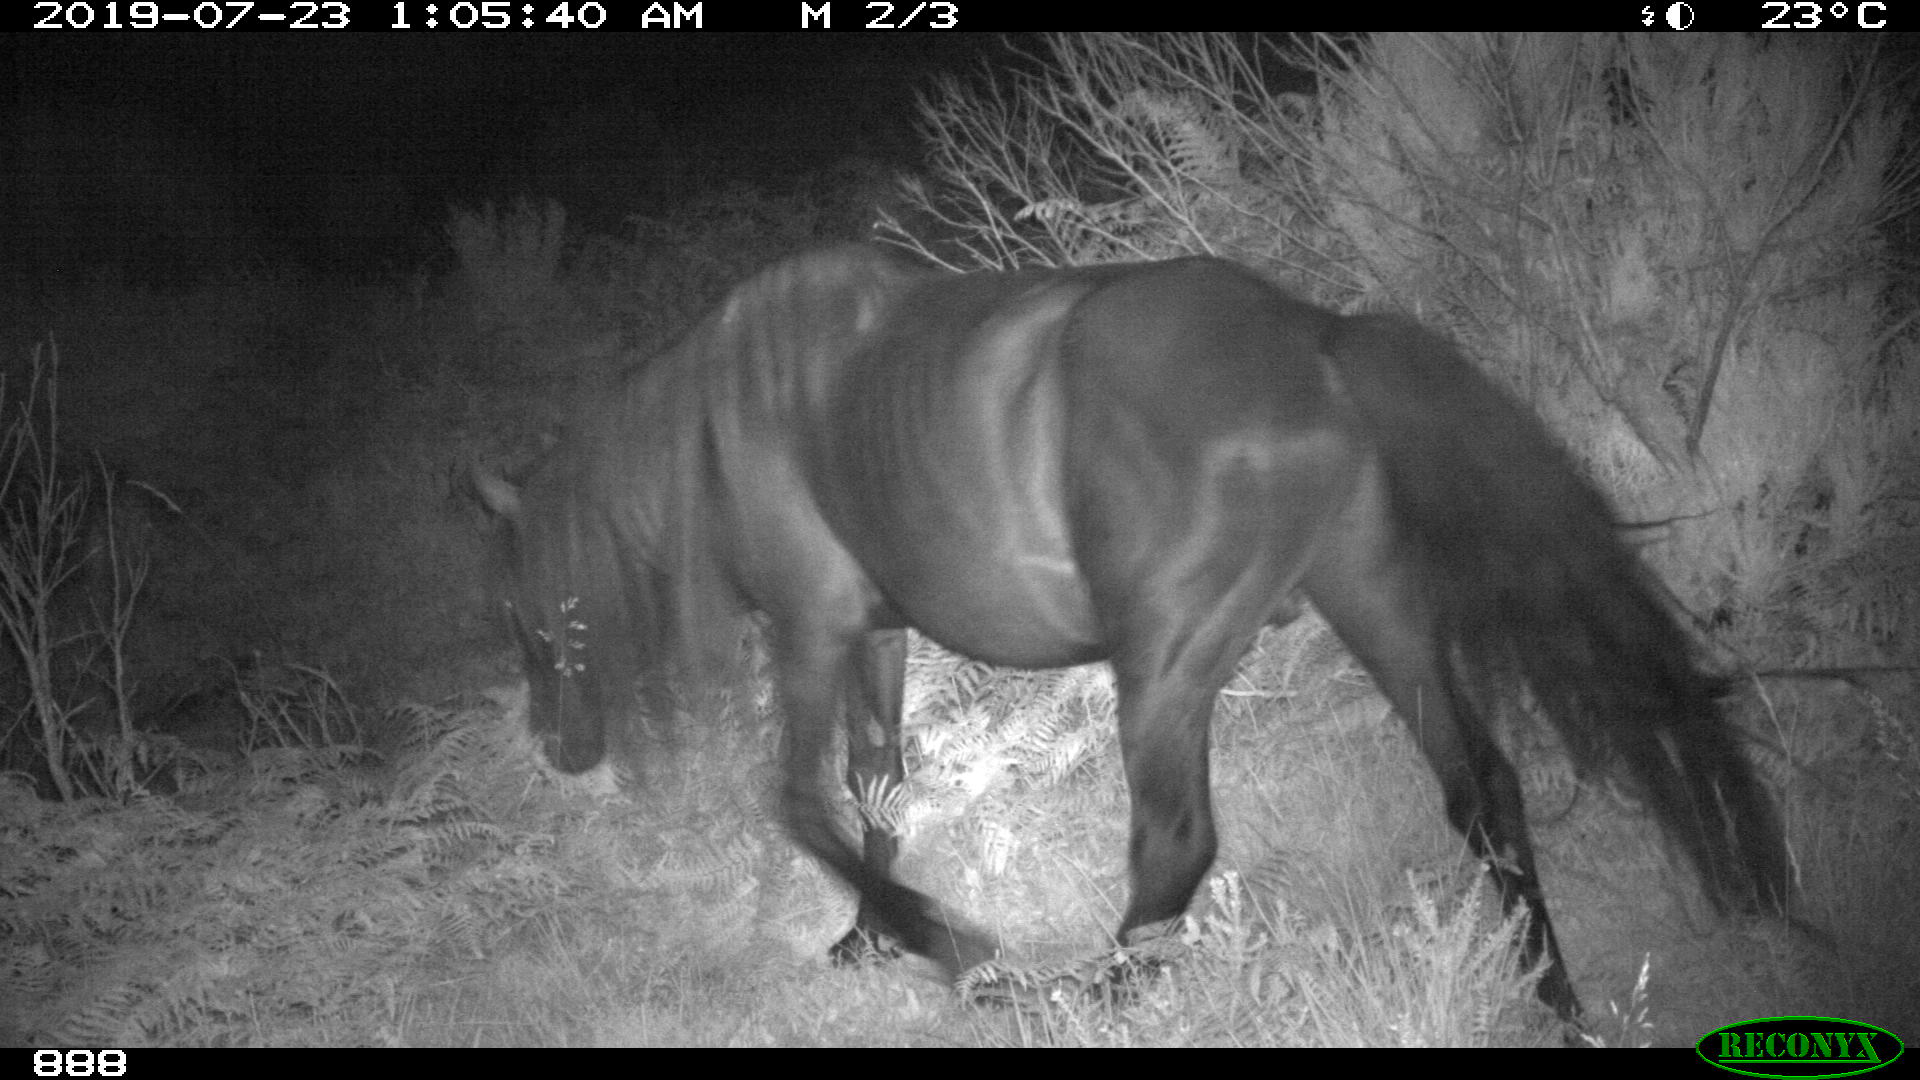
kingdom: Animalia
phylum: Chordata
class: Mammalia
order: Perissodactyla
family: Equidae
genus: Equus
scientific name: Equus caballus
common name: Horse
